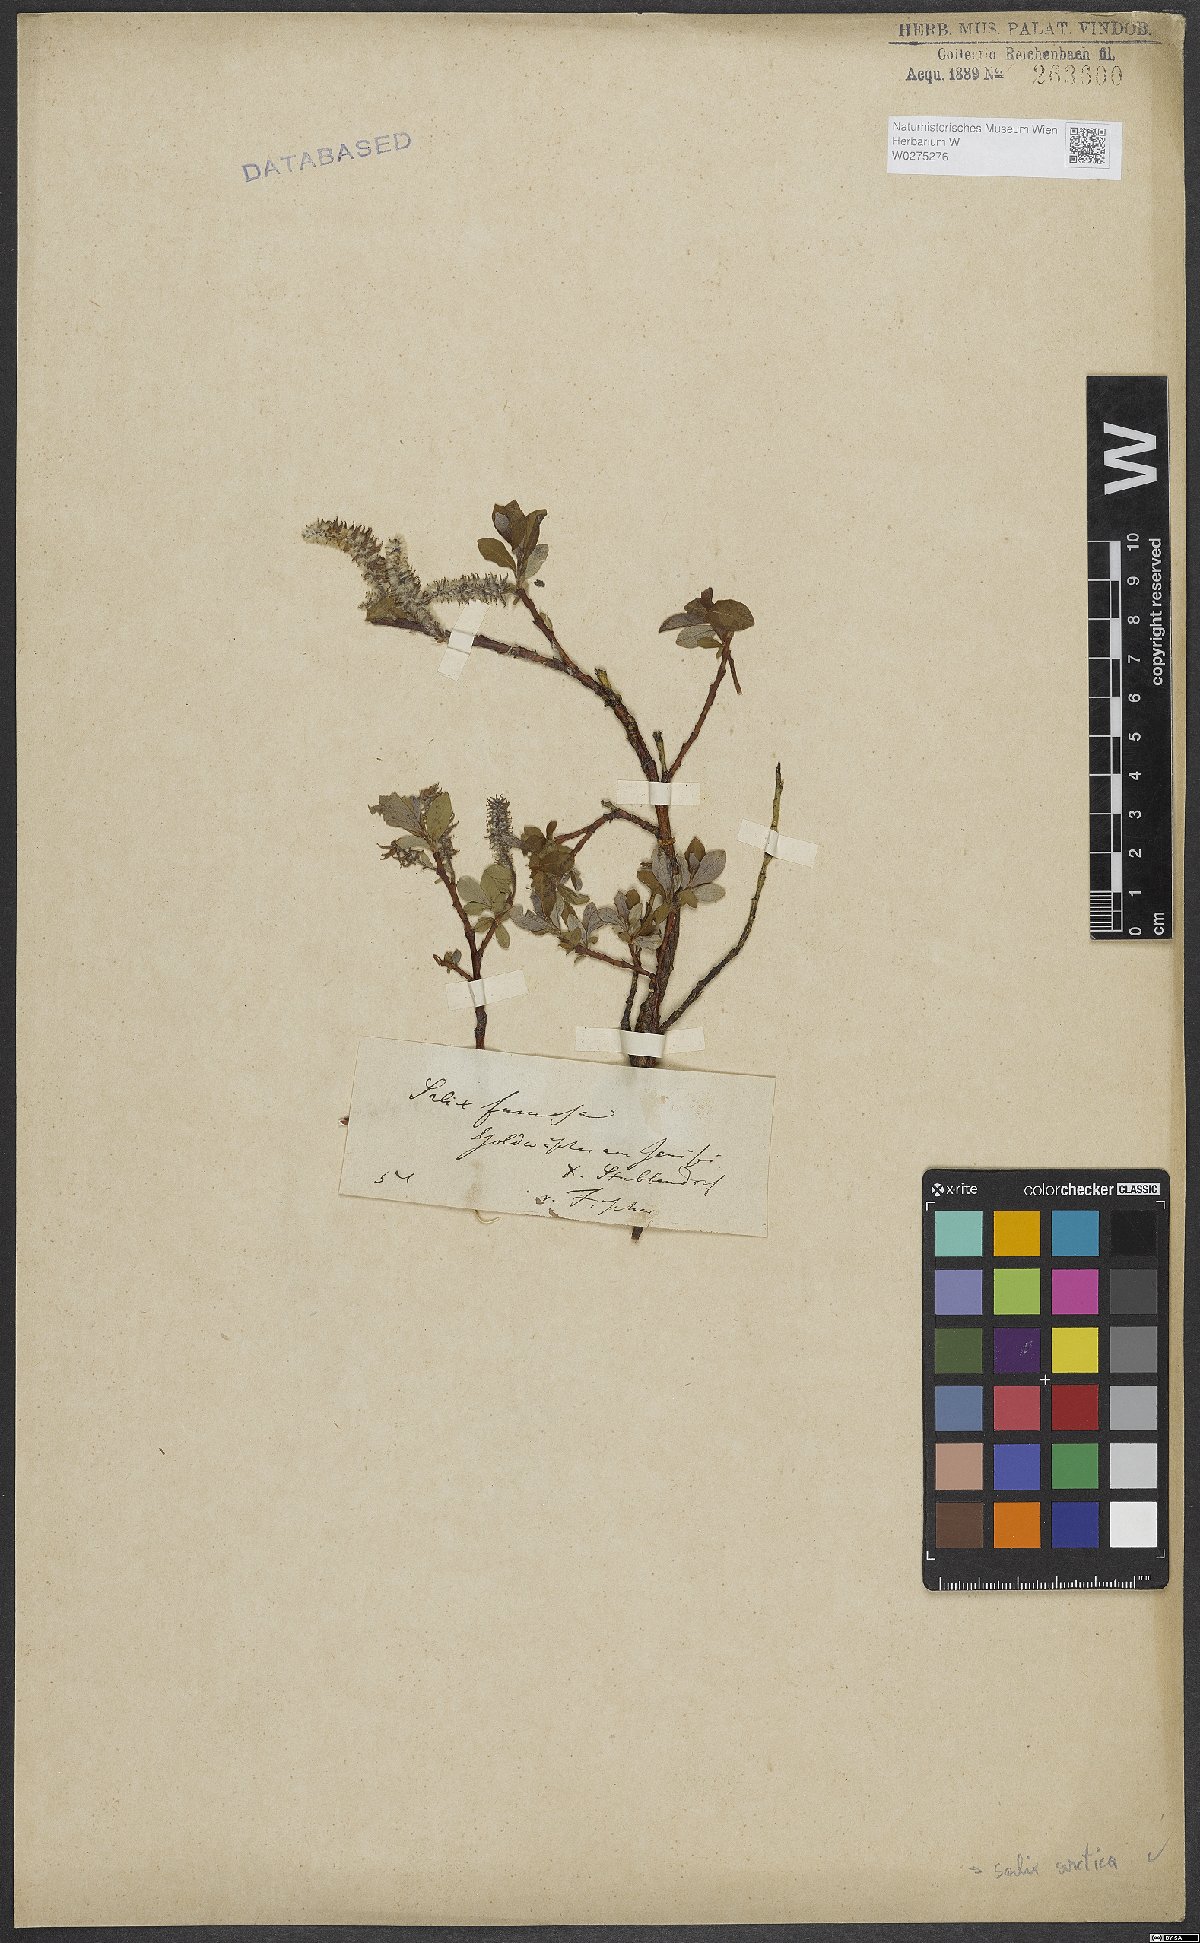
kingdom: Plantae
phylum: Tracheophyta
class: Magnoliopsida
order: Malpighiales
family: Salicaceae
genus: Salix
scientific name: Salix arctica
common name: Arctic willow
